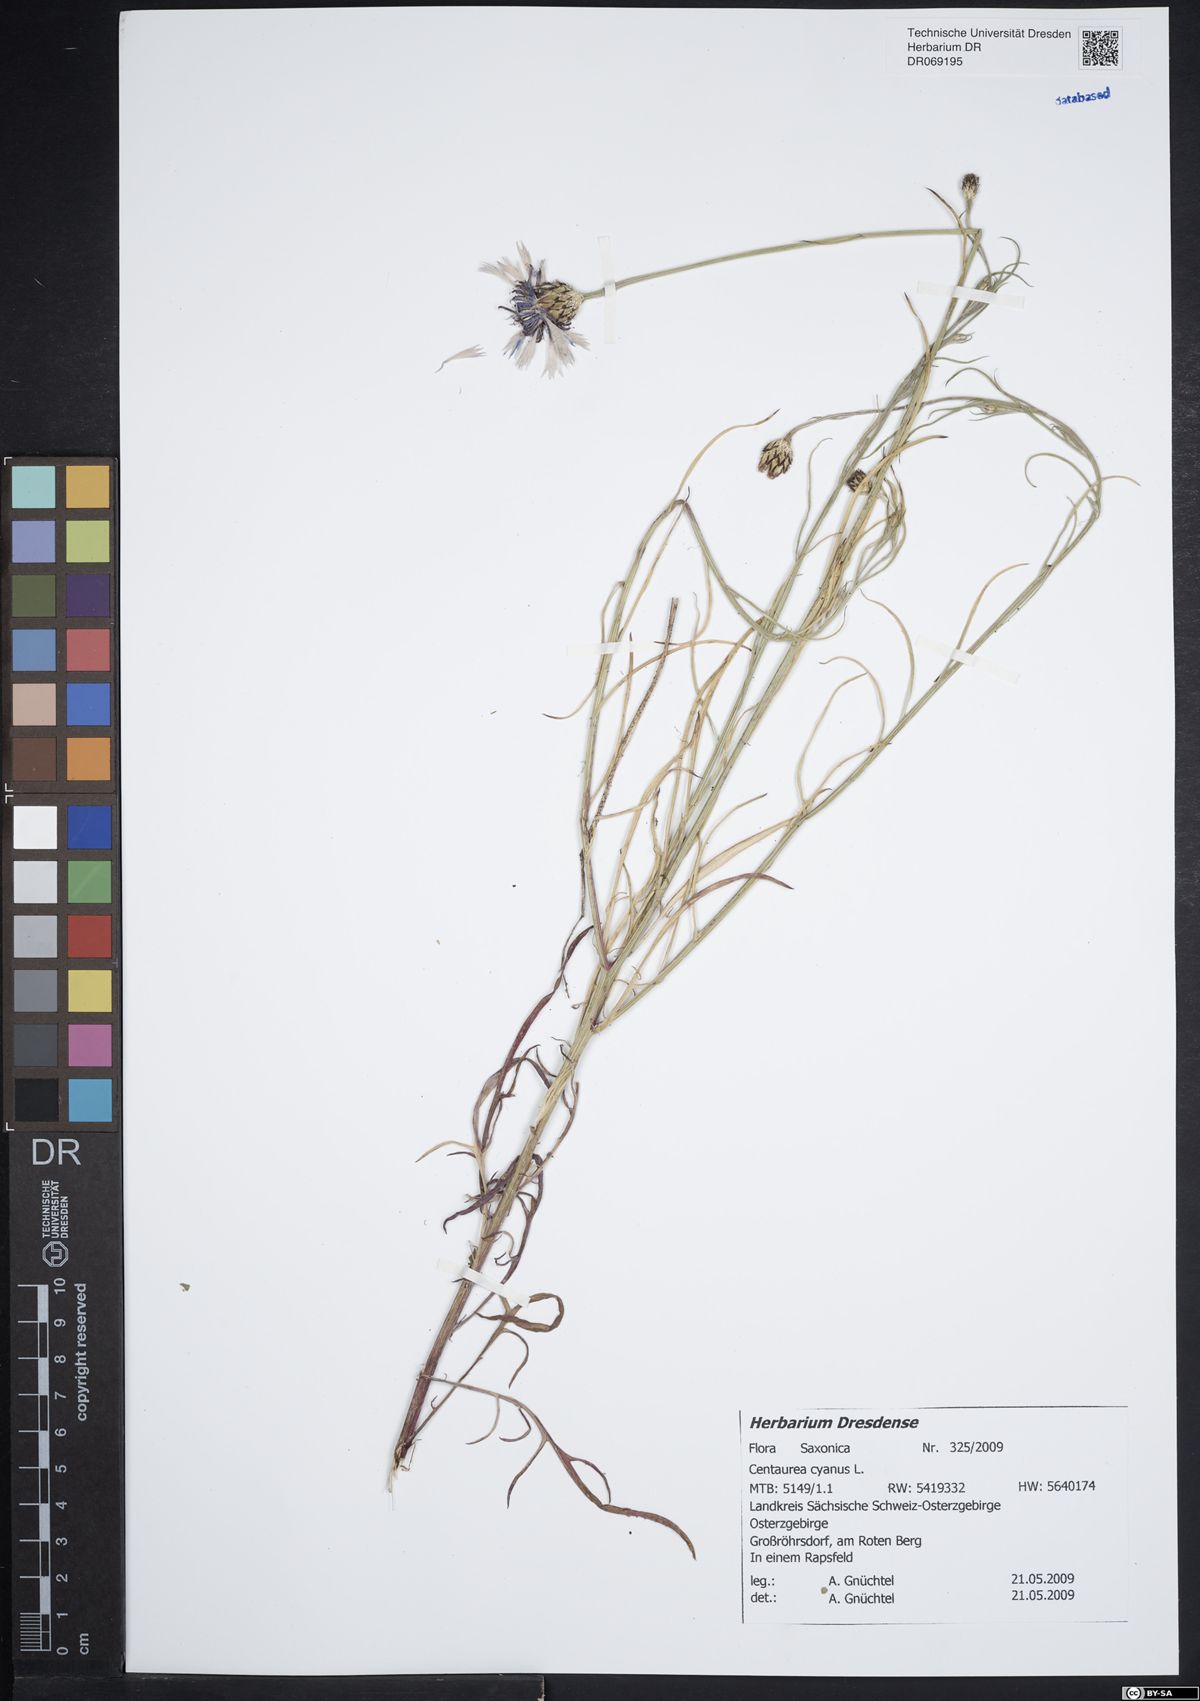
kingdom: Plantae
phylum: Tracheophyta
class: Magnoliopsida
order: Asterales
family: Asteraceae
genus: Centaurea
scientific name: Centaurea cyanus
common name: Cornflower
